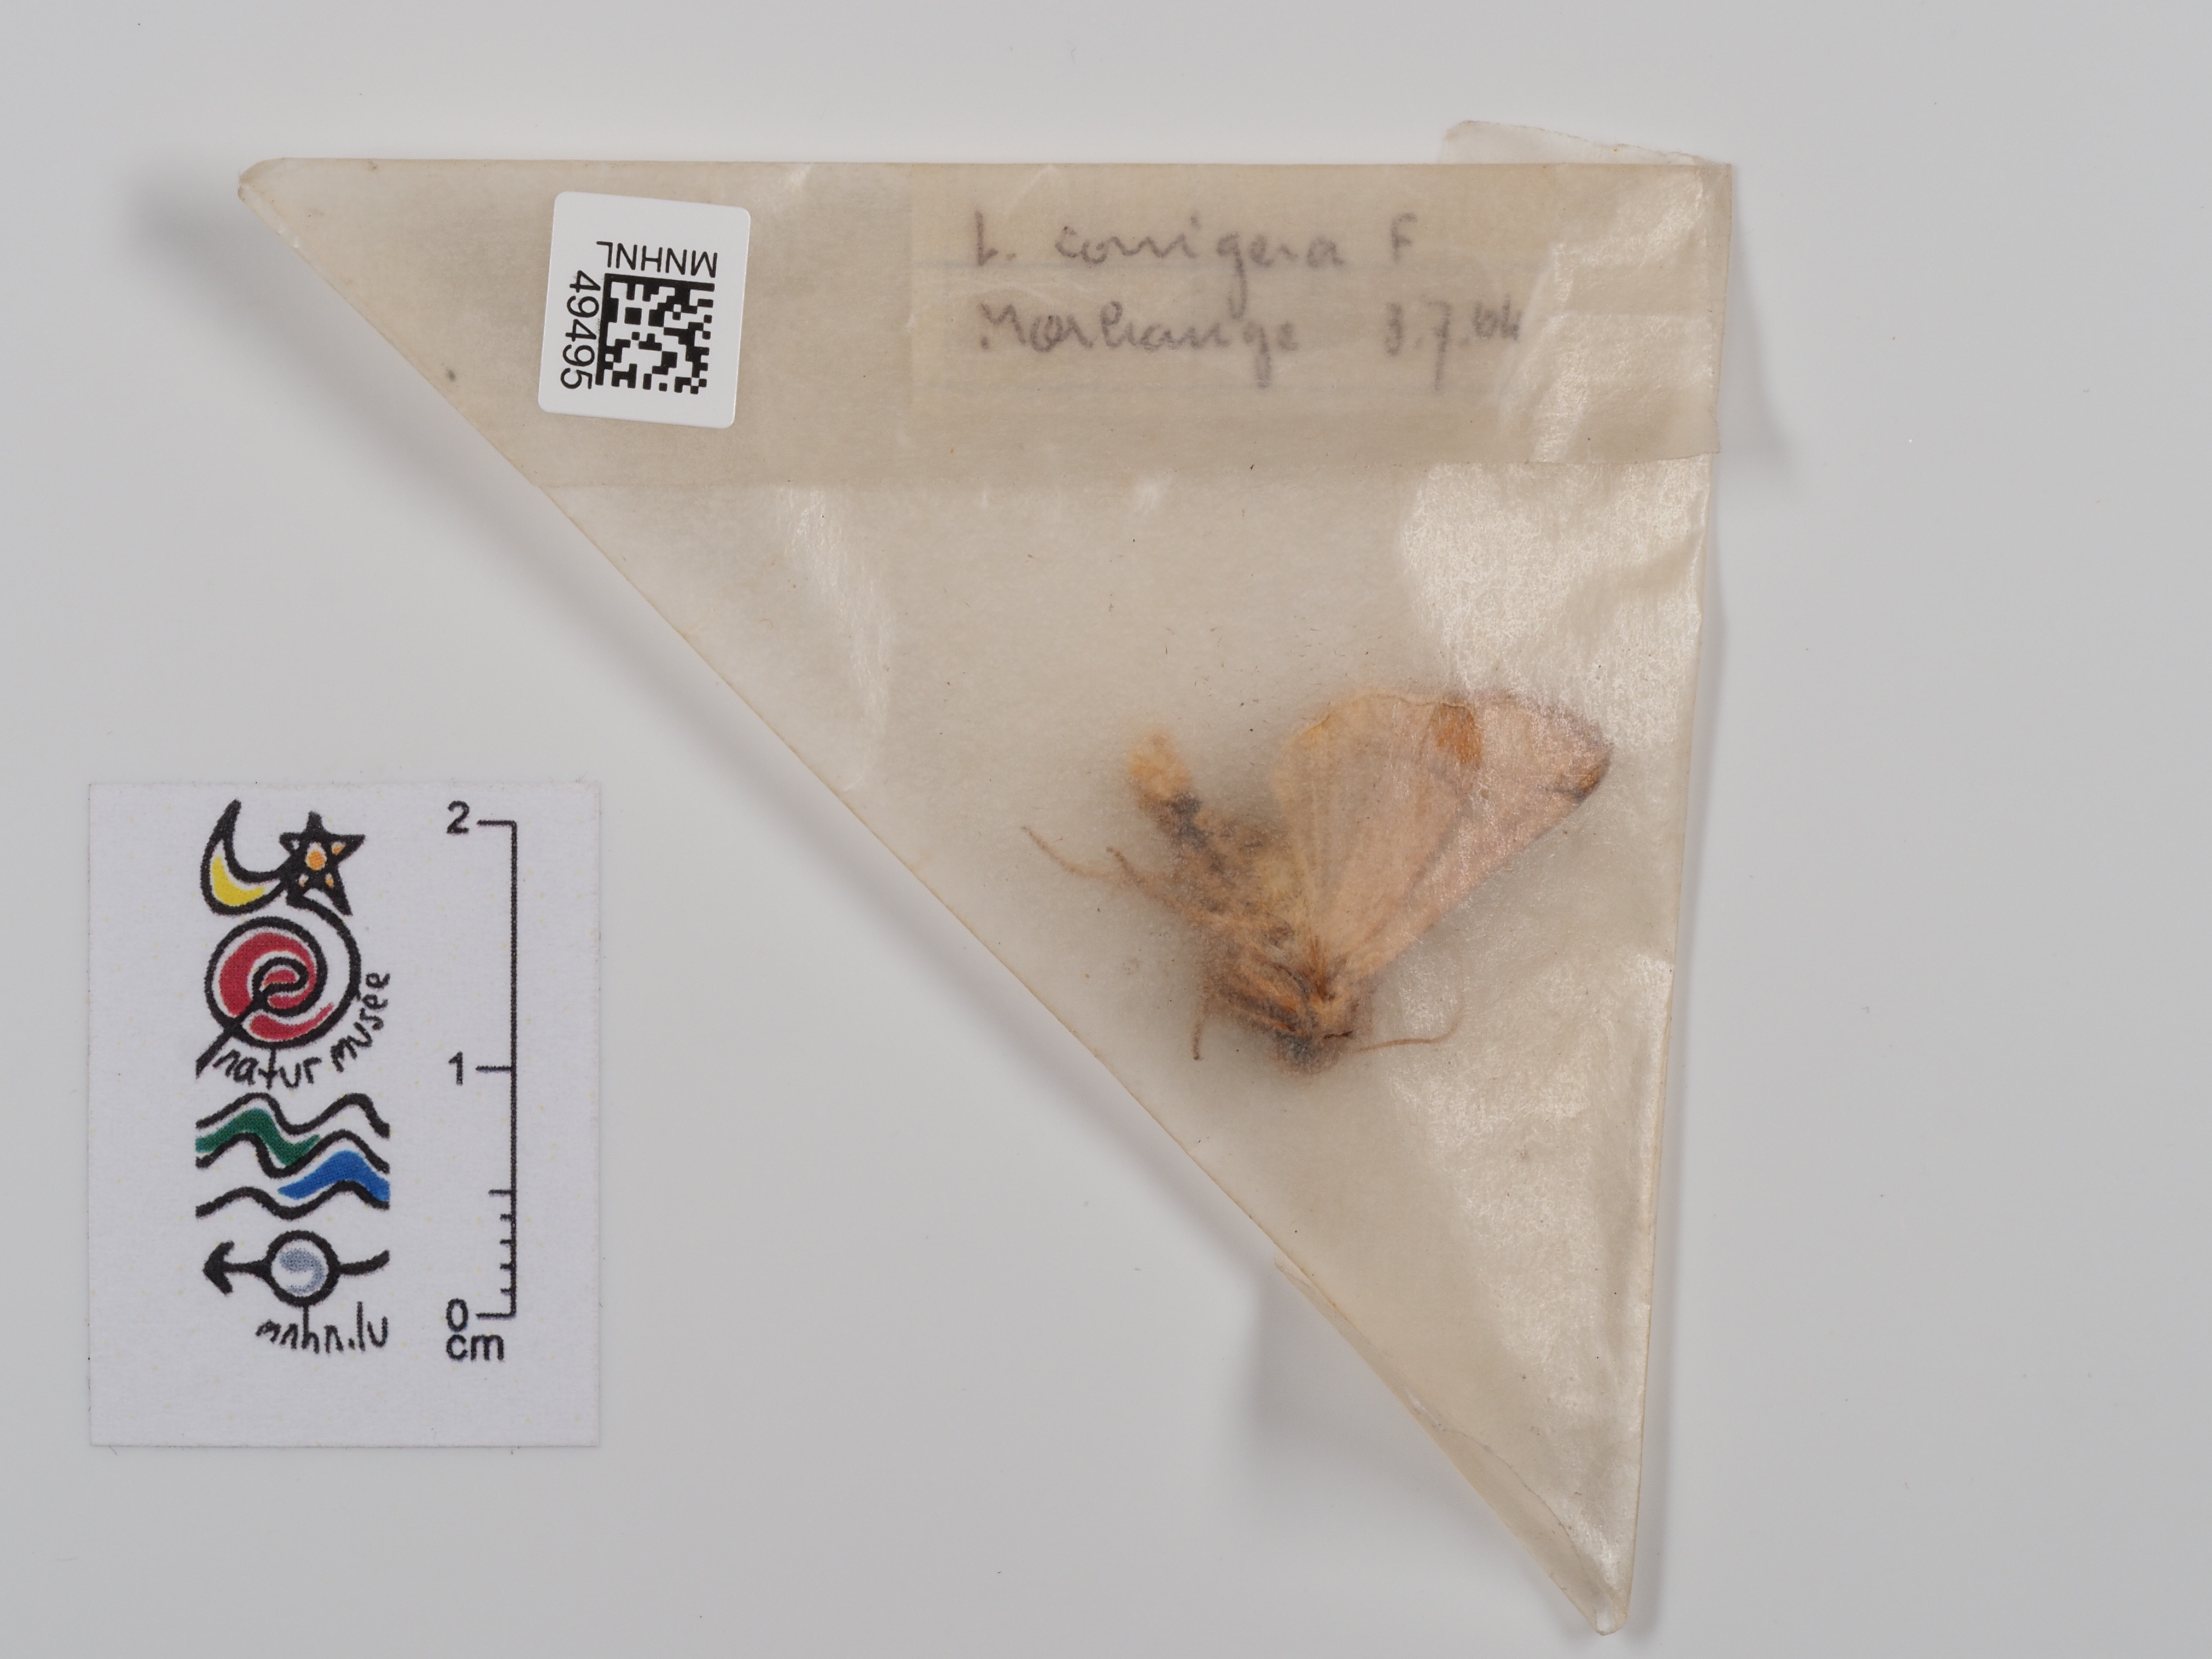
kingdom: Animalia
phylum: Arthropoda
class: Insecta
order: Lepidoptera
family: Noctuidae
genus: Mythimna
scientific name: Mythimna conigera
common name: Brown-line bright-eye
